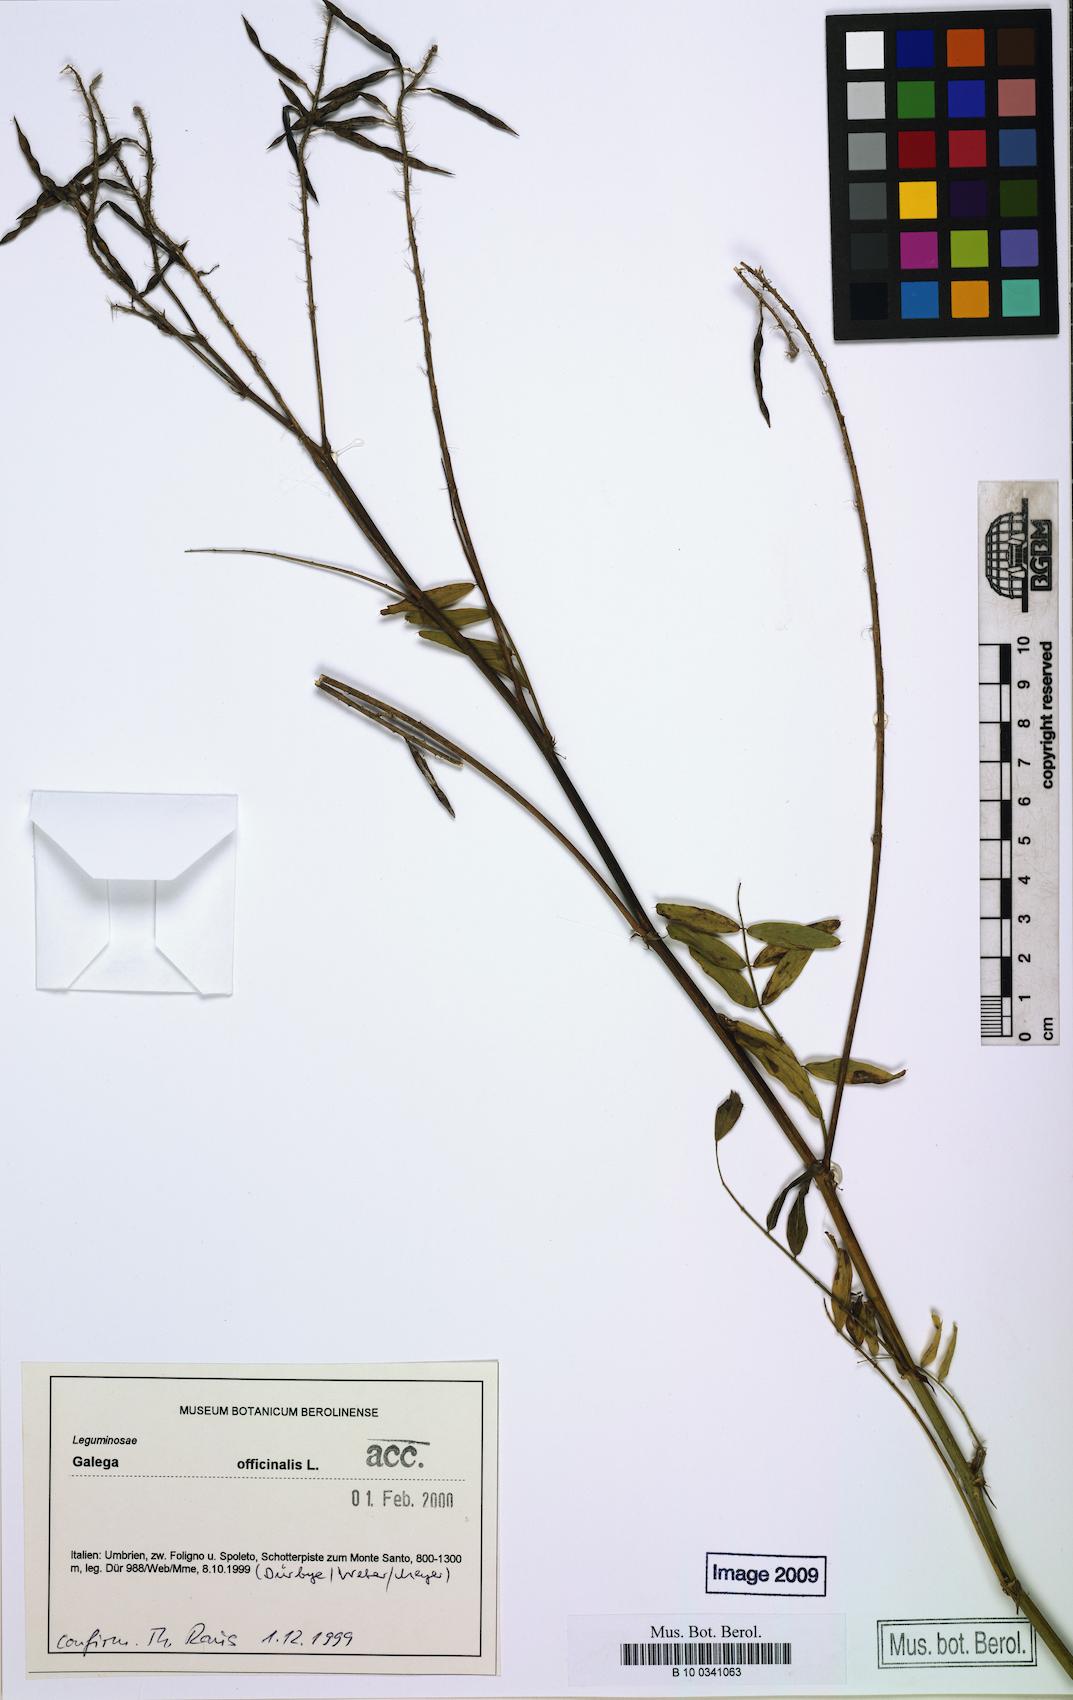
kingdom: Plantae
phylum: Tracheophyta
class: Magnoliopsida
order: Fabales
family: Fabaceae
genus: Galega
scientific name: Galega officinalis
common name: Goat's-rue
